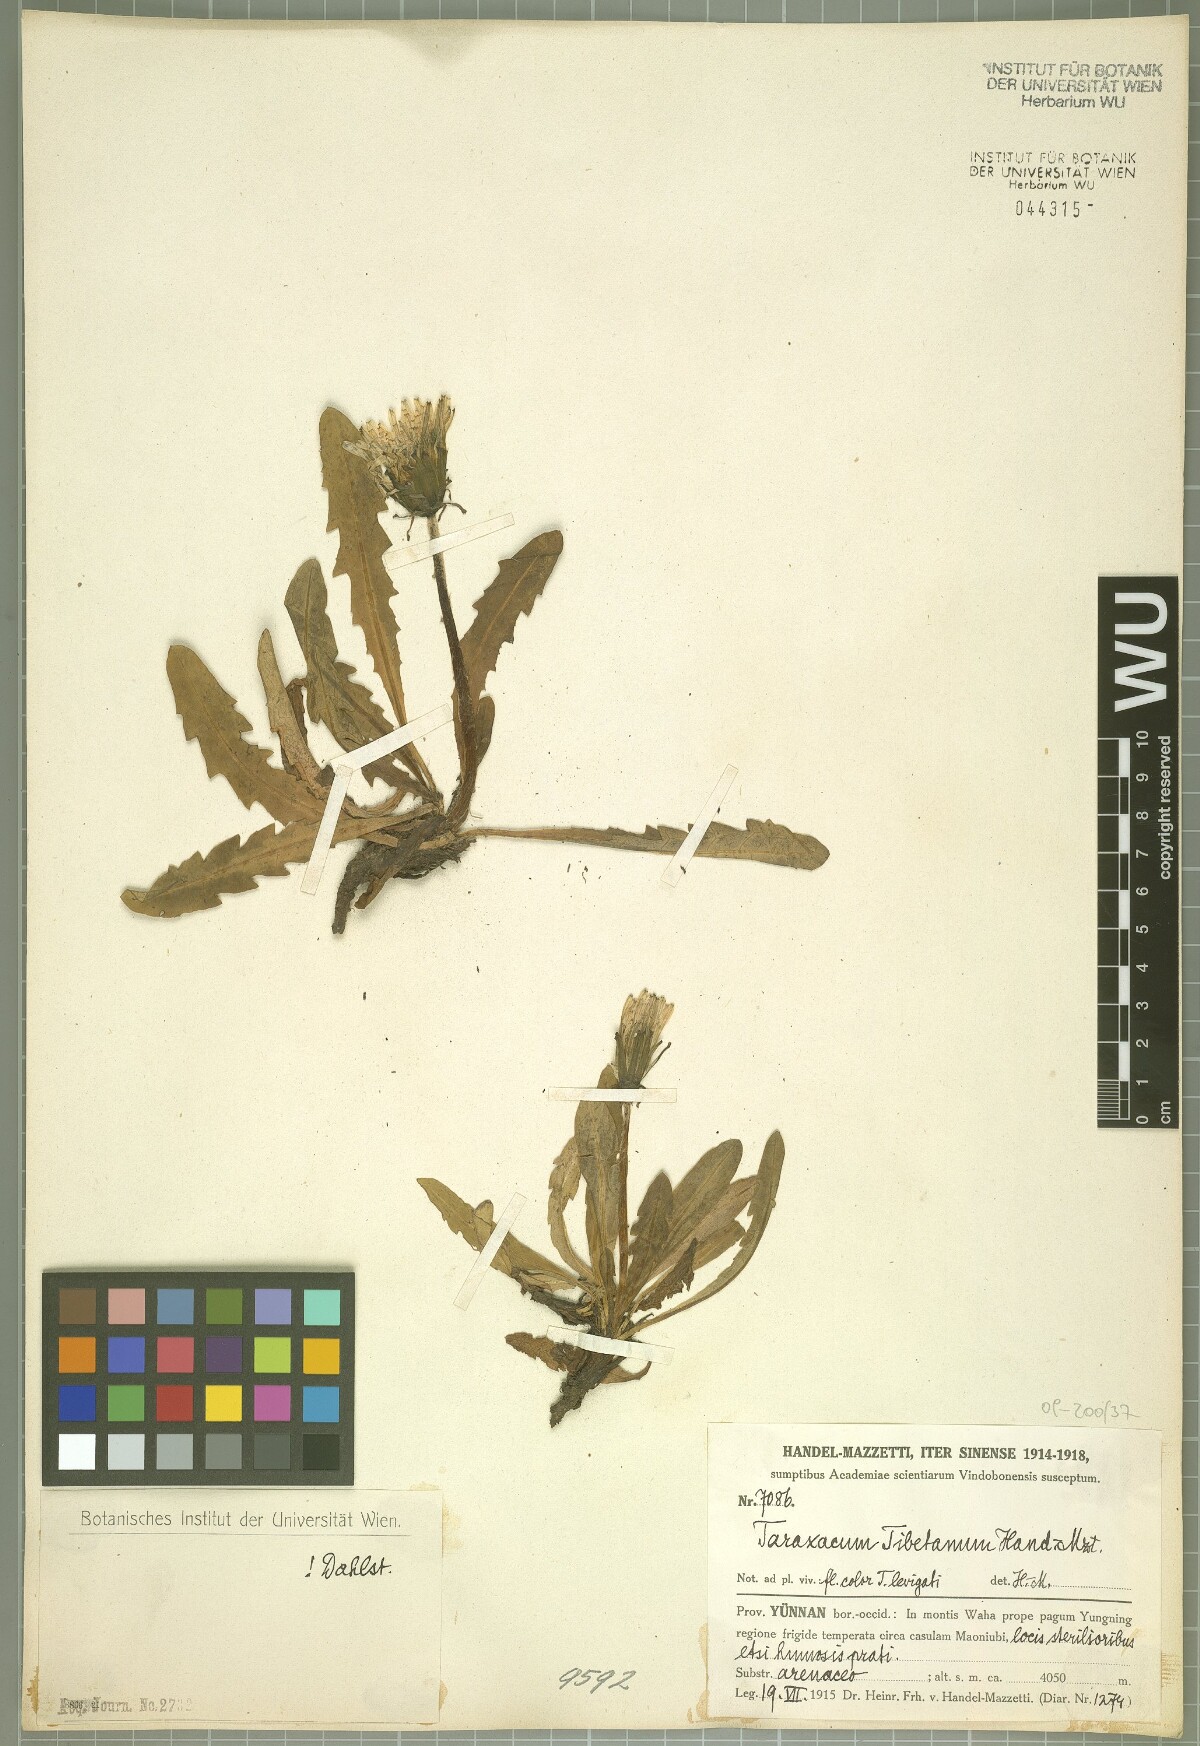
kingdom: Plantae
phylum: Tracheophyta
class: Magnoliopsida
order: Asterales
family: Asteraceae
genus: Taraxacum
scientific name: Taraxacum tibetanum
